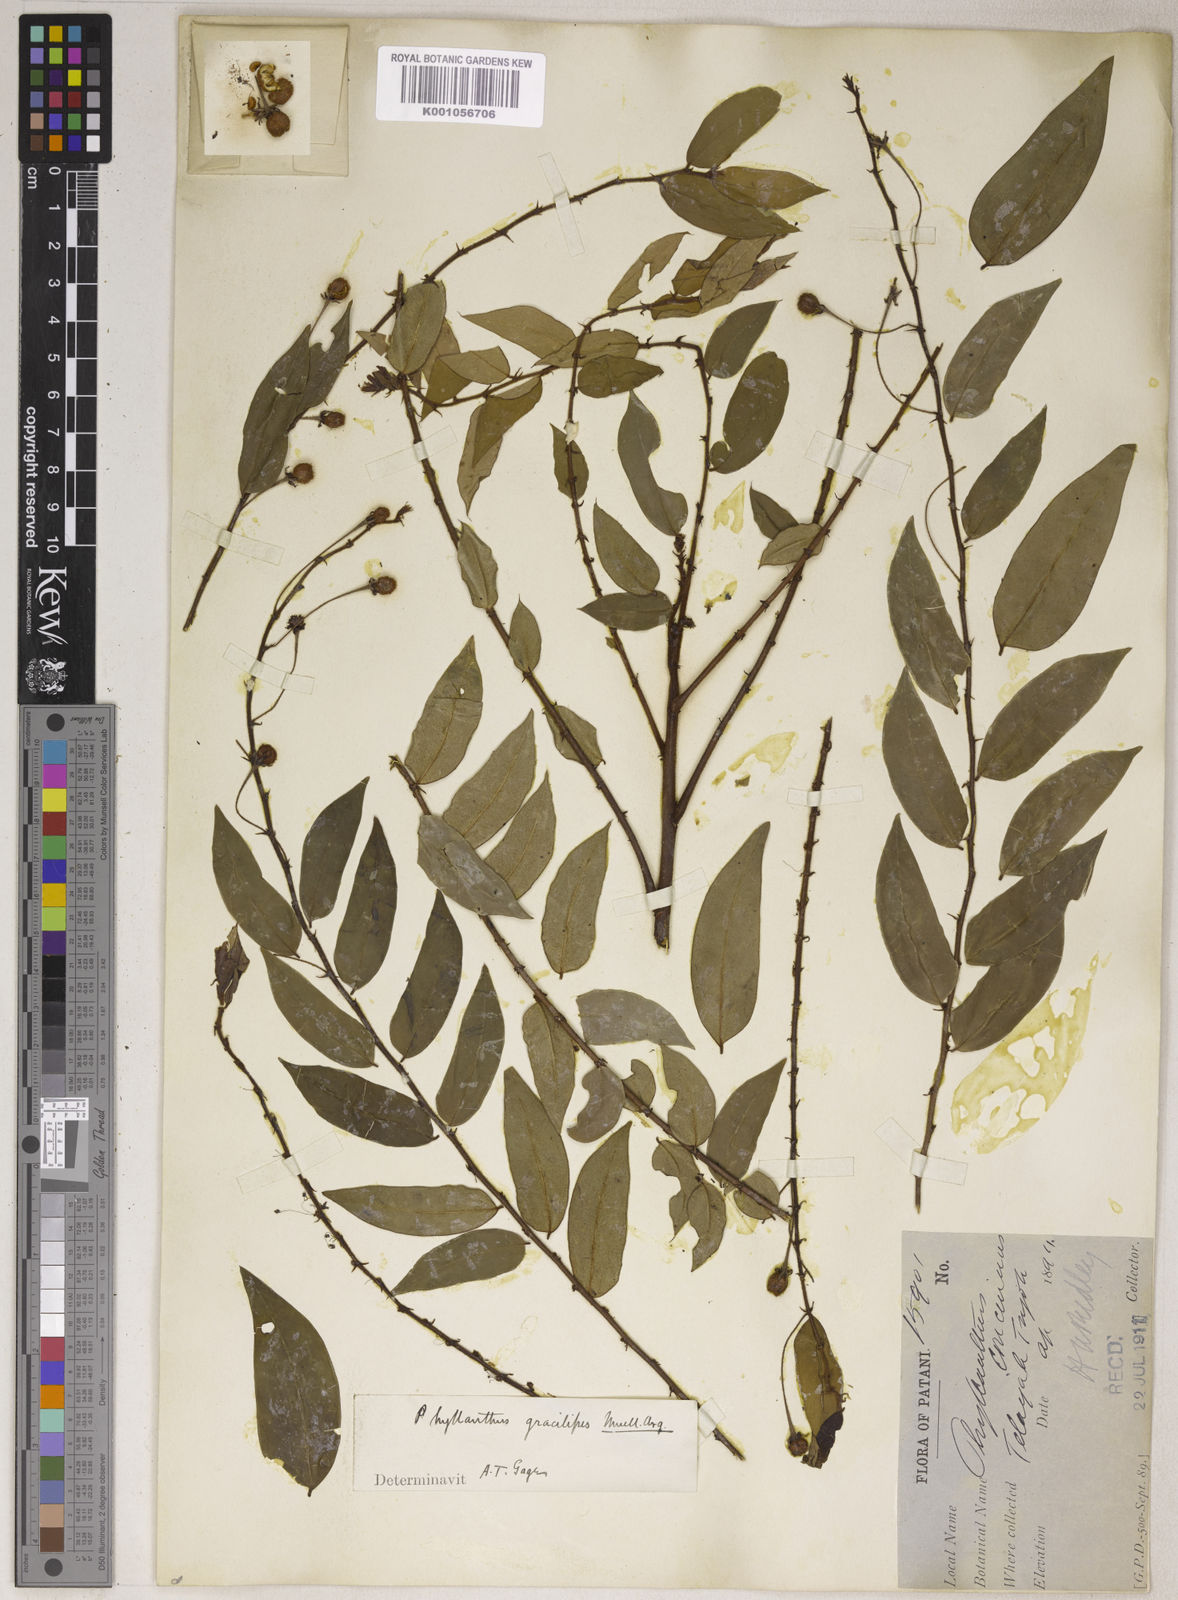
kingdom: Plantae
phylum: Tracheophyta
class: Magnoliopsida
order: Malpighiales
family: Phyllanthaceae
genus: Phyllanthus
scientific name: Phyllanthus
